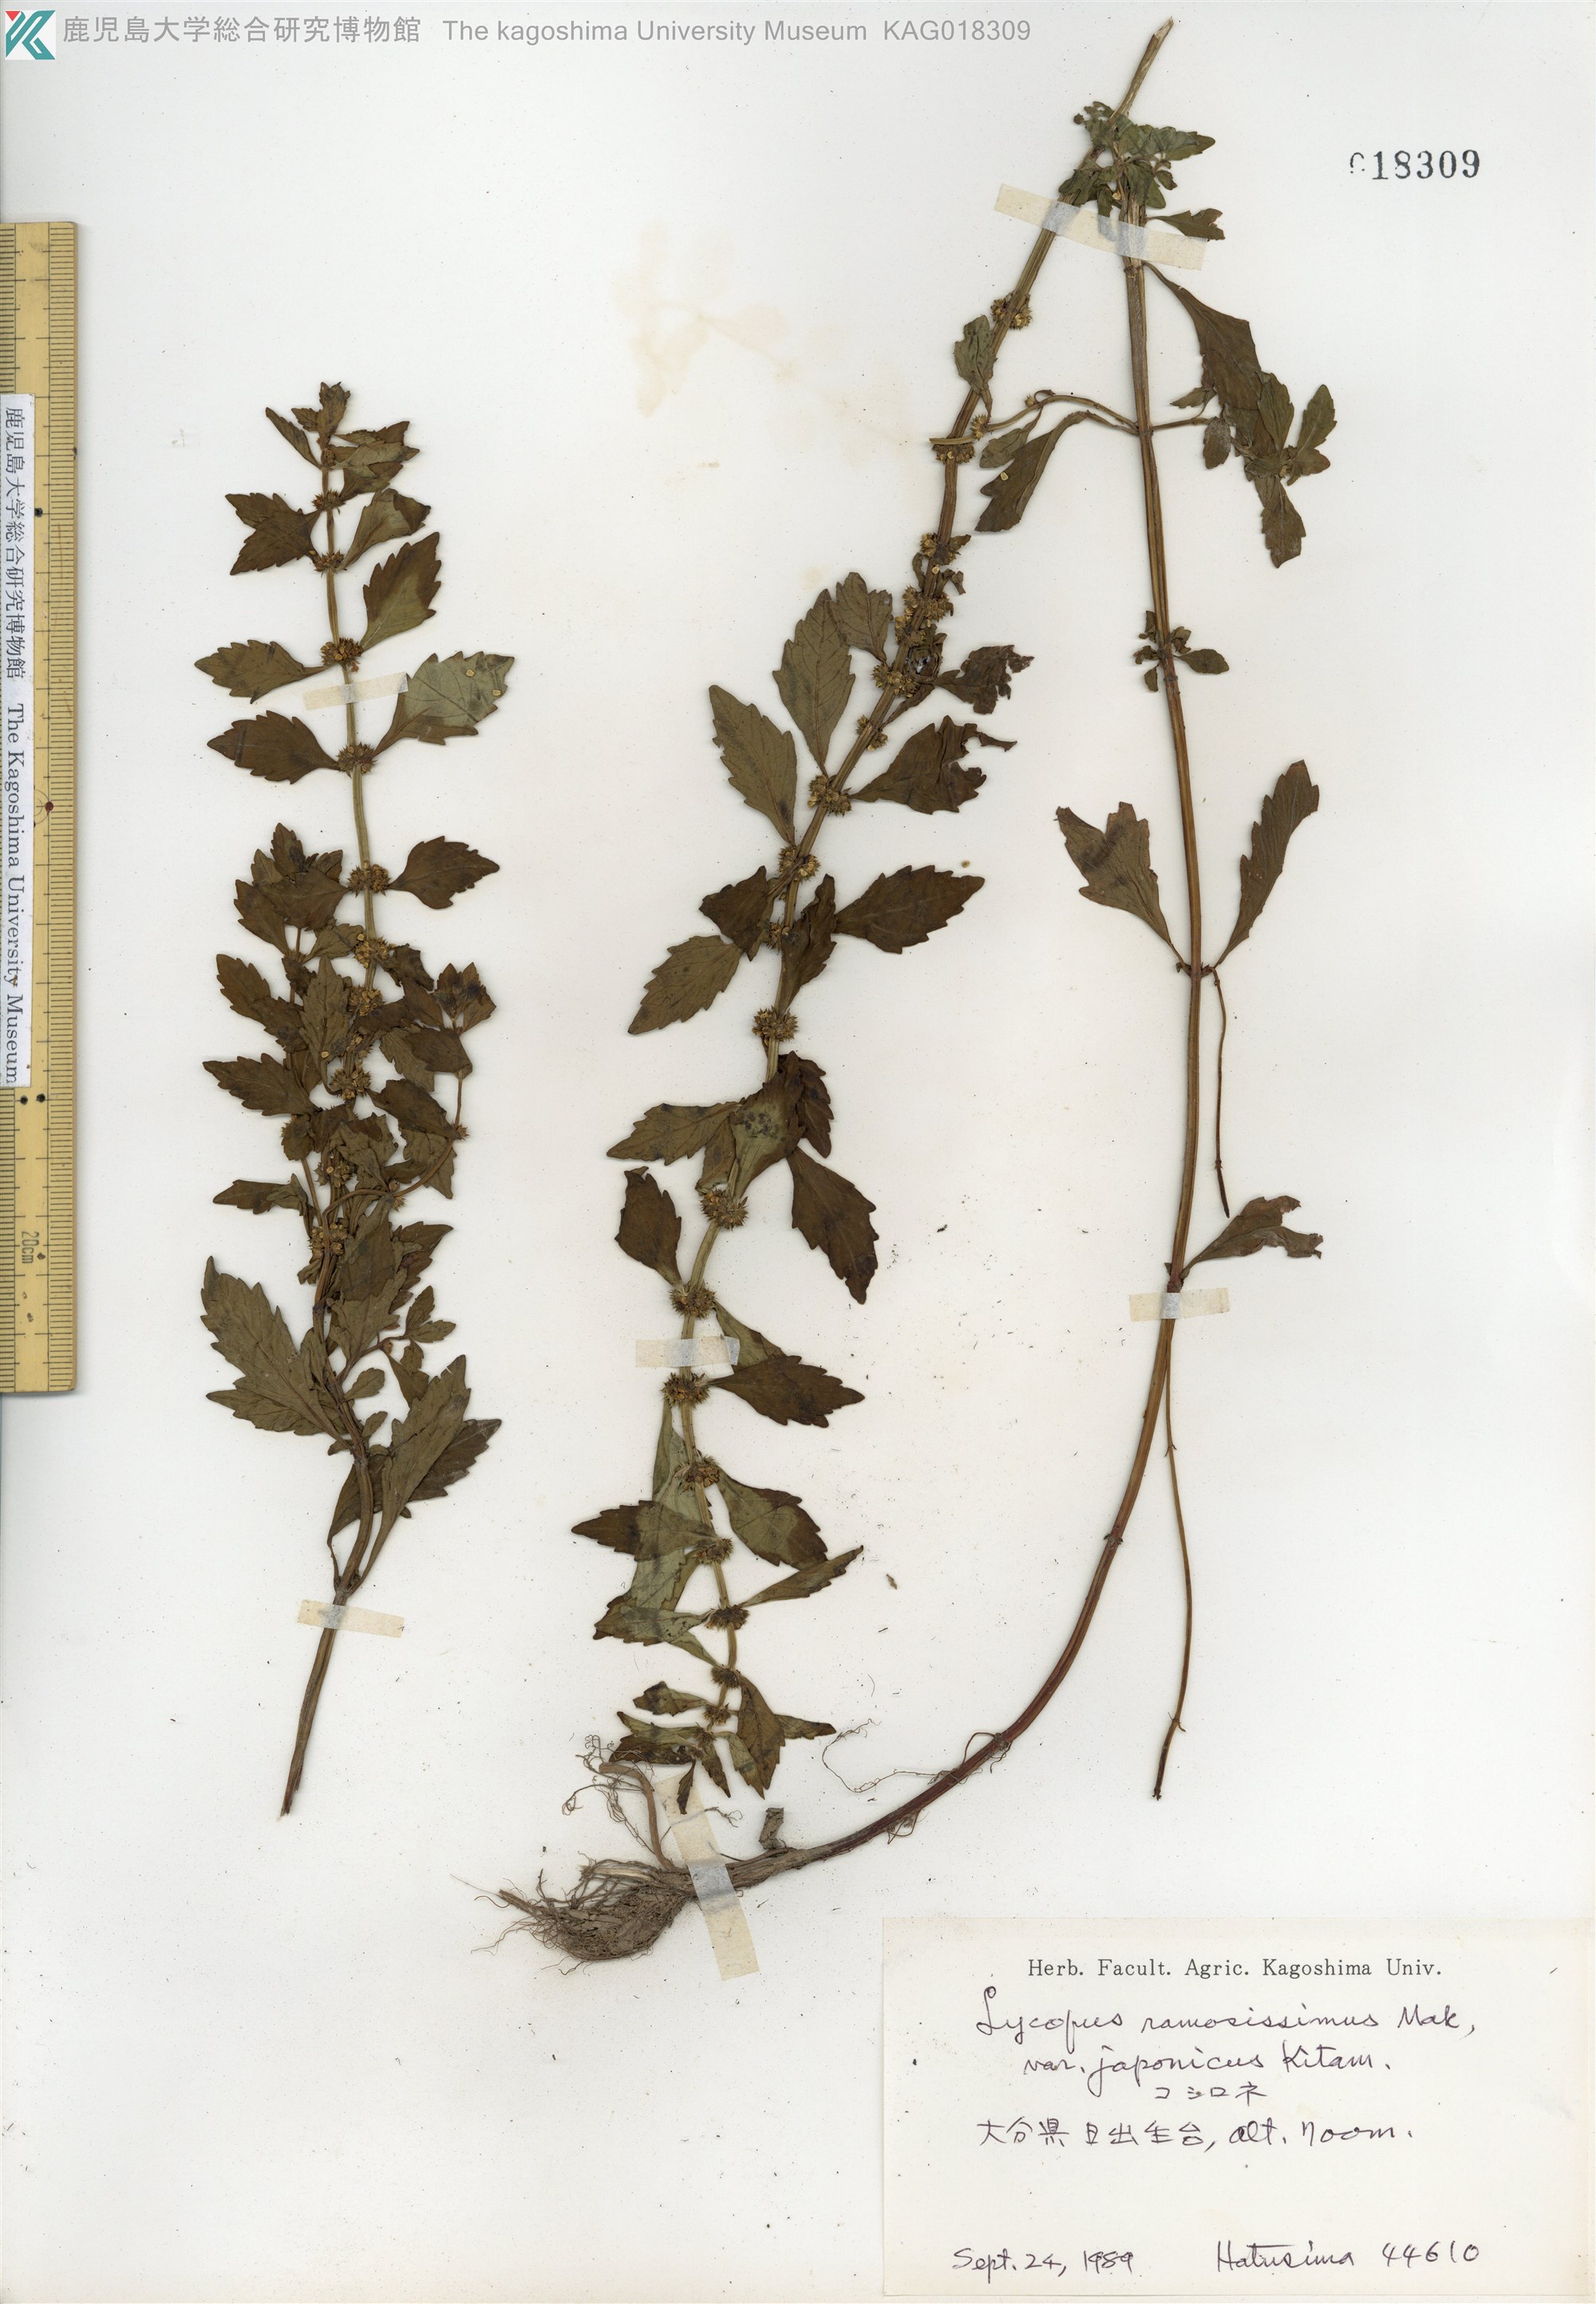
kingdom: Plantae
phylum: Tracheophyta
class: Magnoliopsida
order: Lamiales
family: Lamiaceae
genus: Lycopus
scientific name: Lycopus cavaleriei
